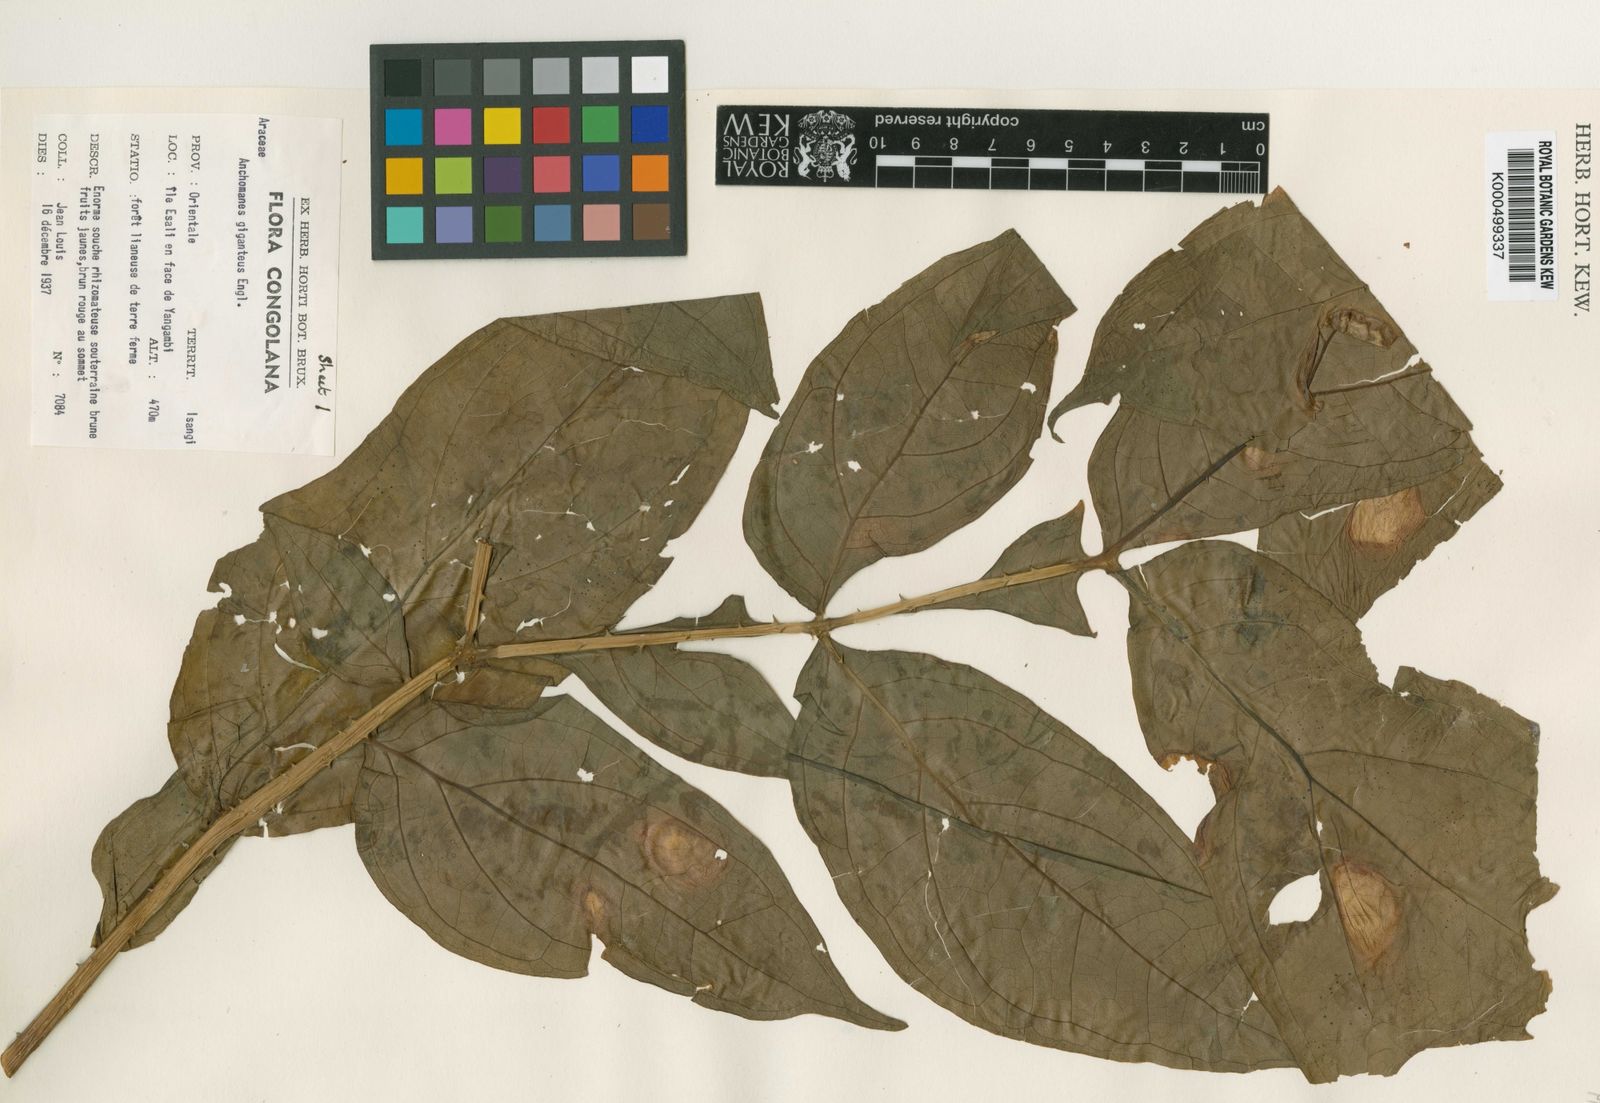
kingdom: Plantae
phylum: Tracheophyta
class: Liliopsida
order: Alismatales
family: Araceae
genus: Anchomanes
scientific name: Anchomanes giganteus
